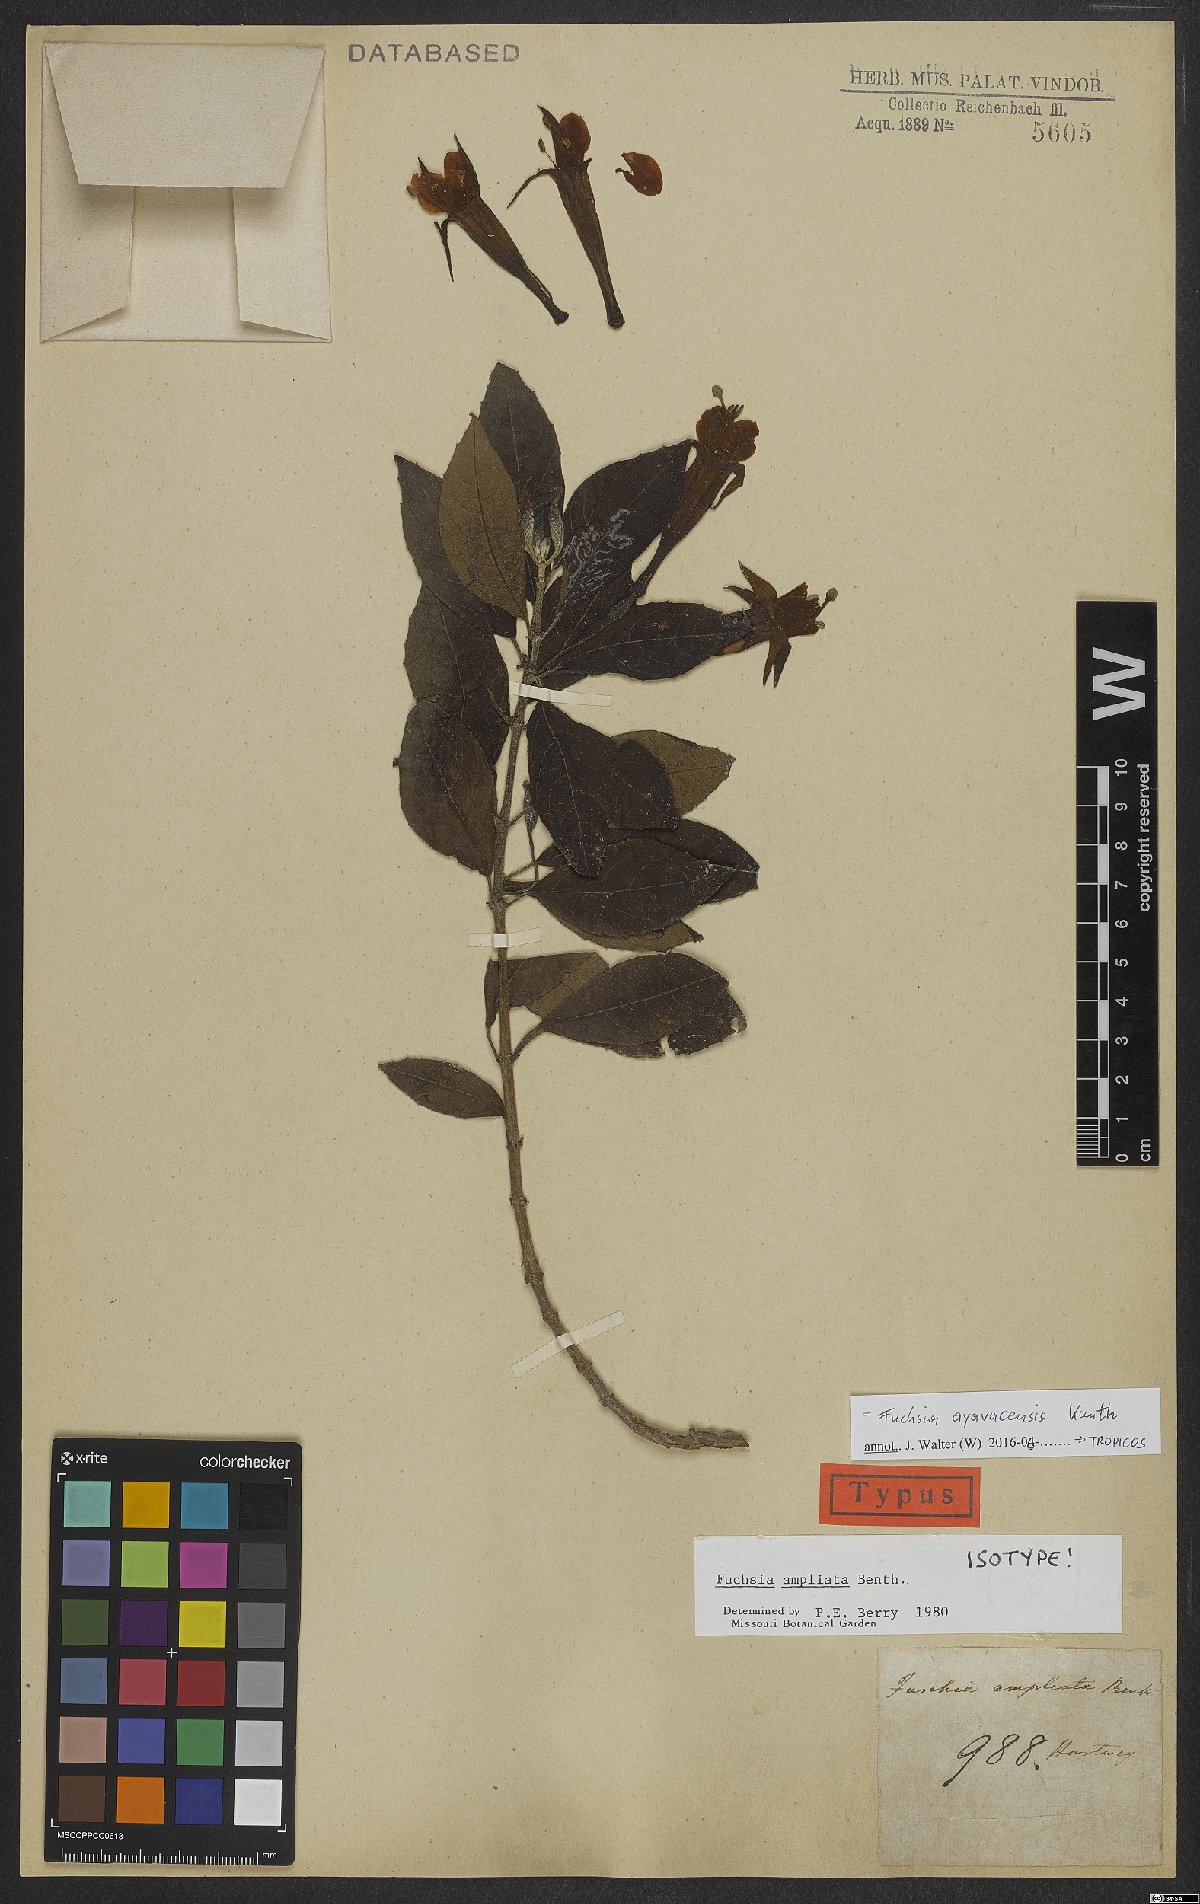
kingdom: Plantae
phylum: Tracheophyta
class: Magnoliopsida
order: Myrtales
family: Onagraceae
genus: Fuchsia
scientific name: Fuchsia ayavacensis
